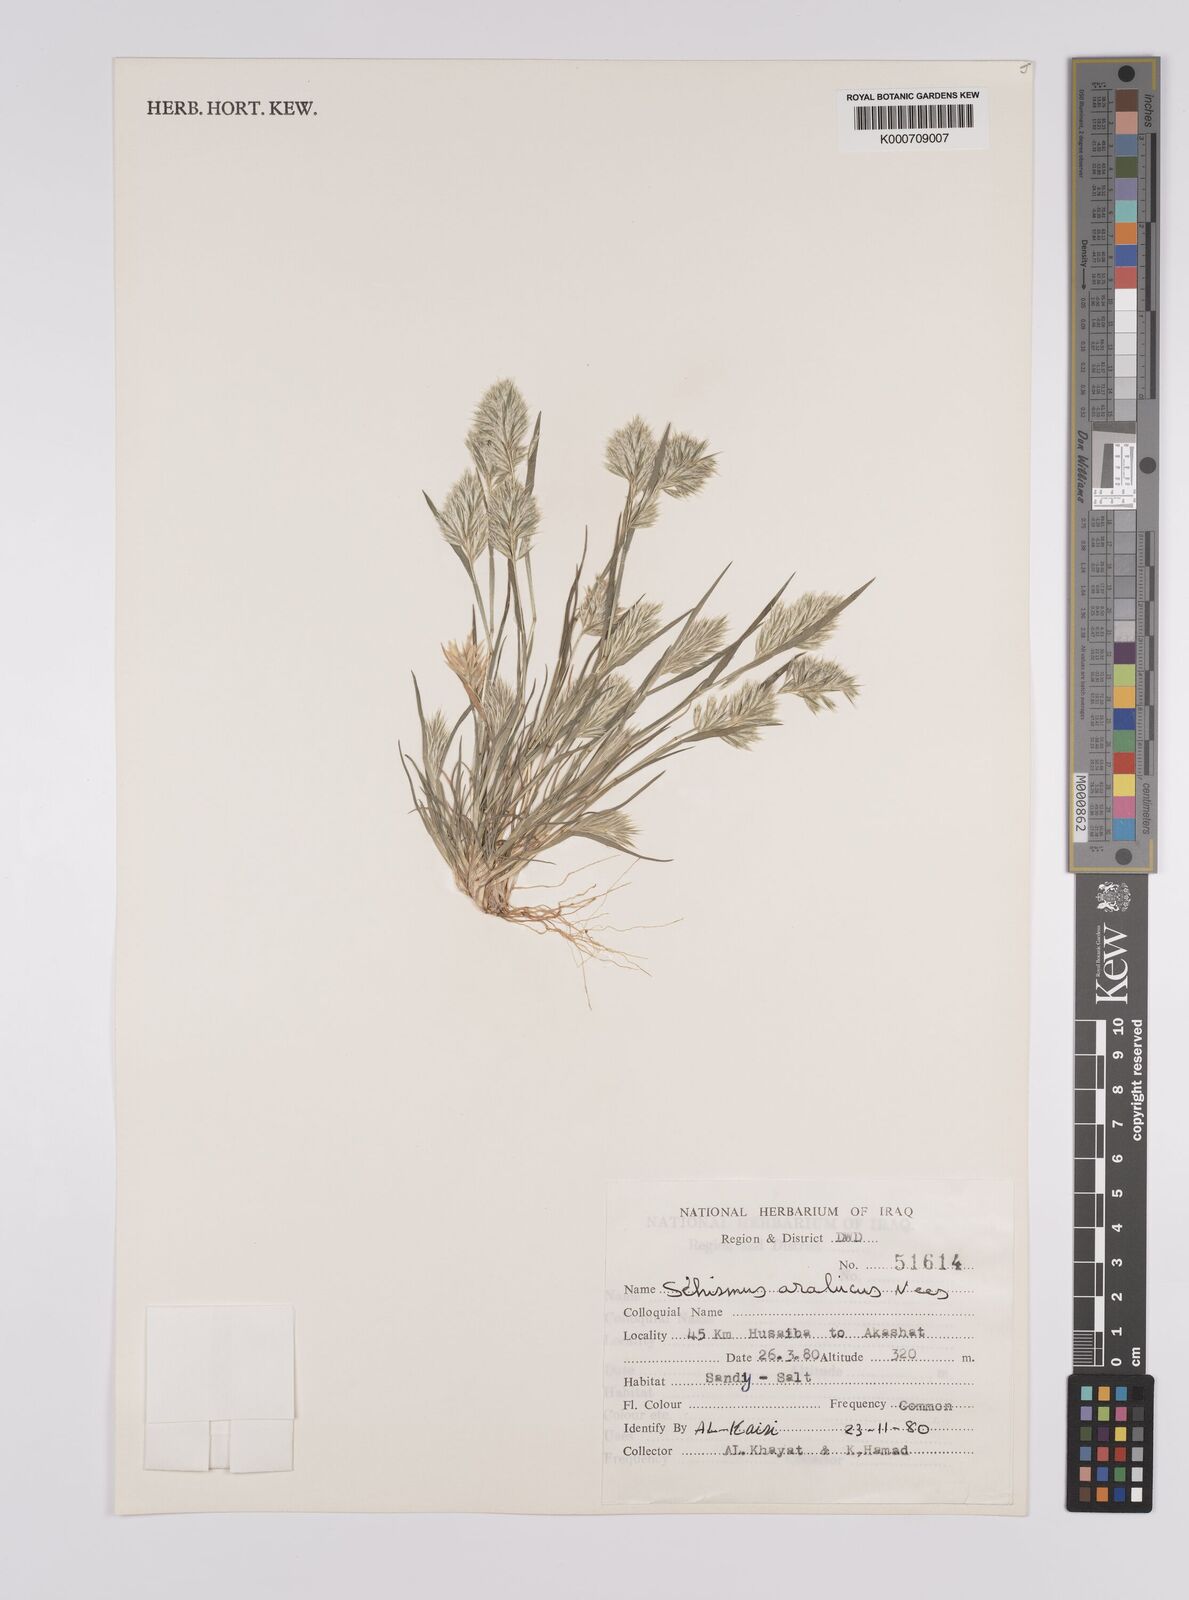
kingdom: Plantae
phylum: Tracheophyta
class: Liliopsida
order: Poales
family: Poaceae
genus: Schismus
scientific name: Schismus arabicus
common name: Arabian schismus
